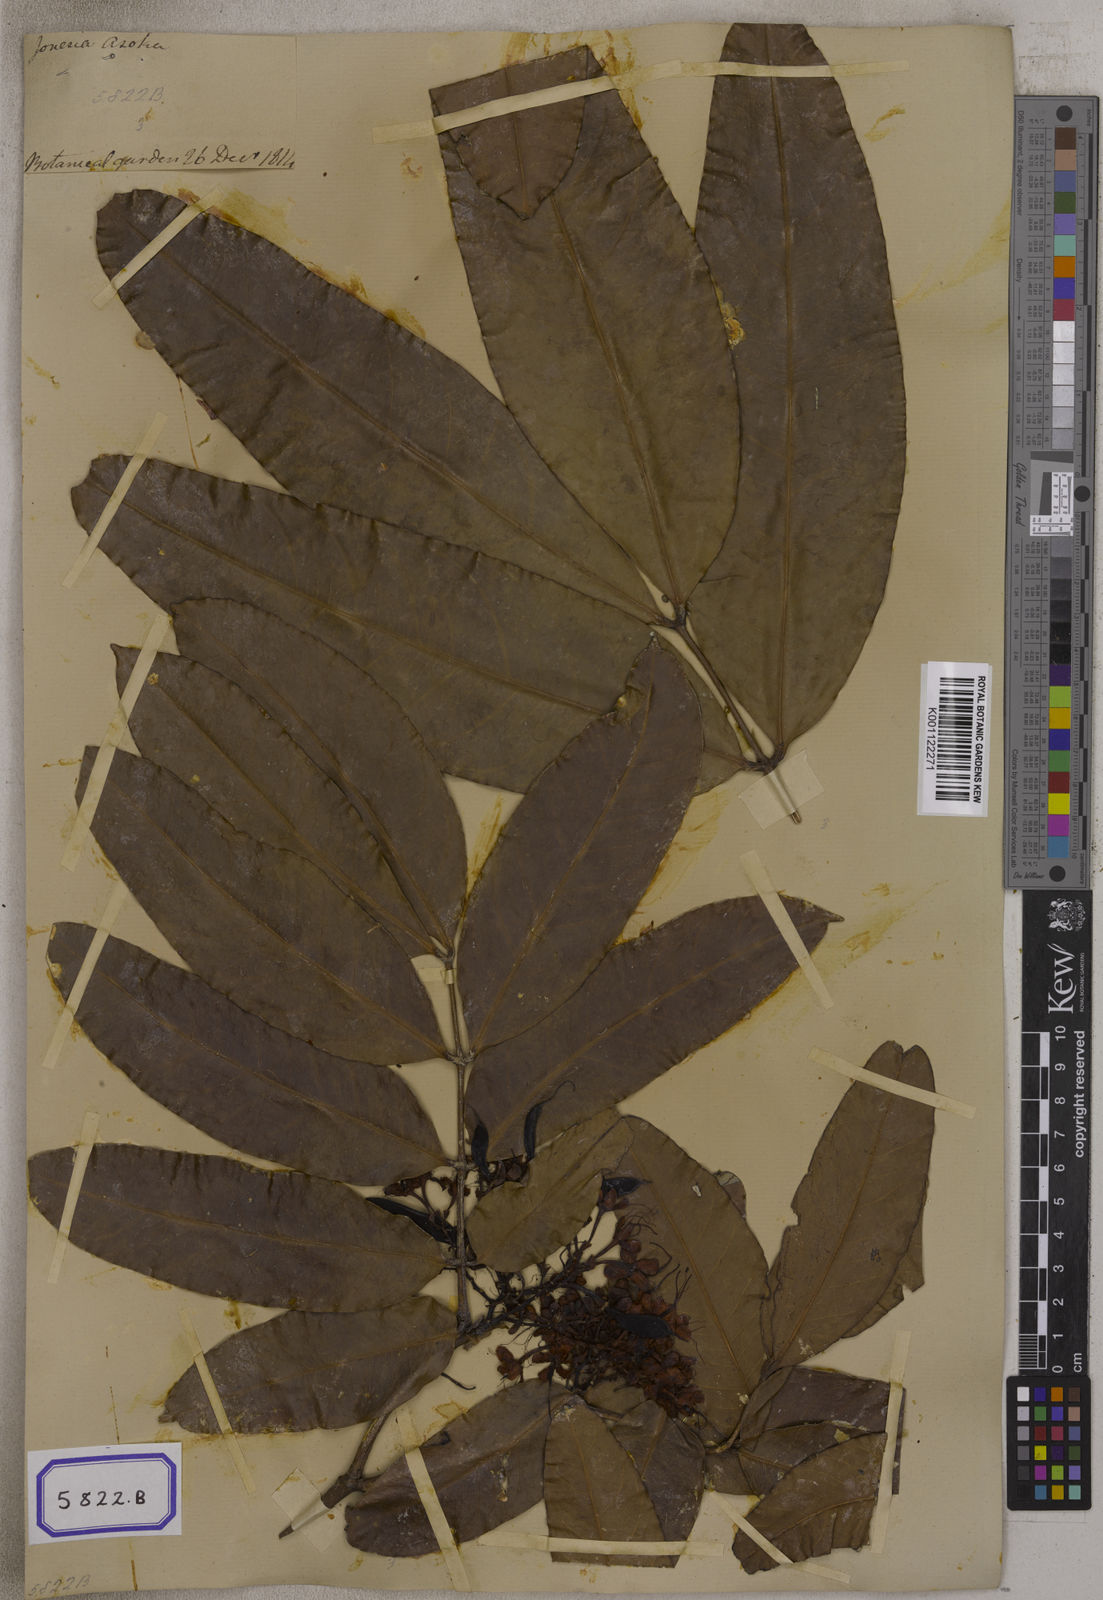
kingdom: Plantae
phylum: Tracheophyta
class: Magnoliopsida
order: Fabales
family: Fabaceae
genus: Saraca
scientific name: Saraca asoca
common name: Asoka-tree
